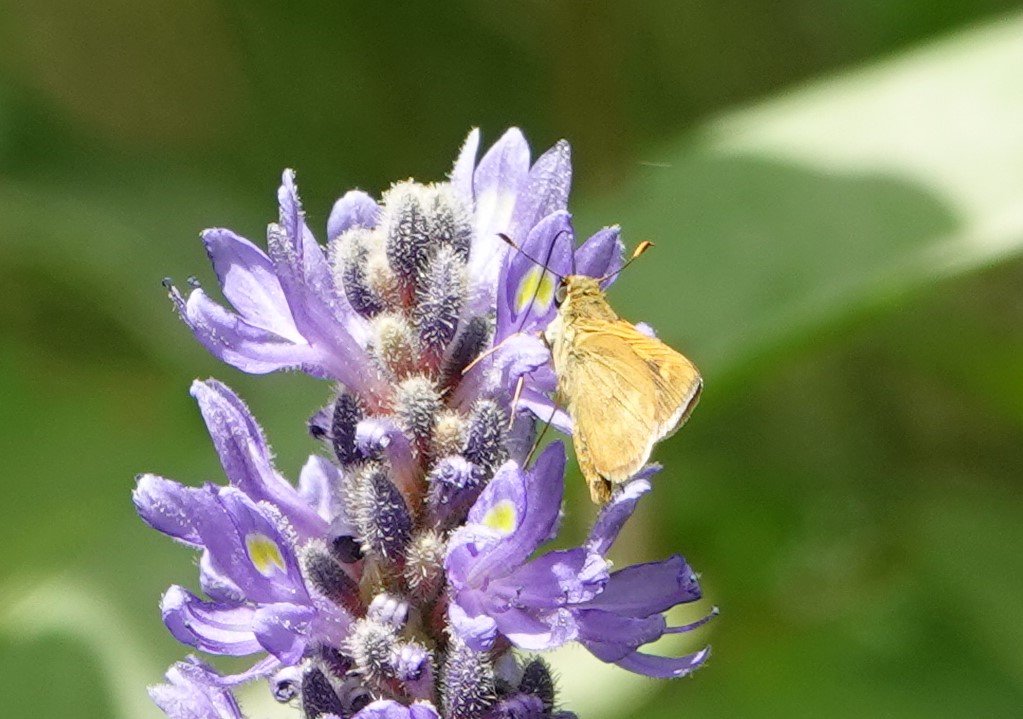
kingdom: Animalia
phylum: Arthropoda
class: Insecta
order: Lepidoptera
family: Hesperiidae
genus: Problema
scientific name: Problema byssus
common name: Byssus Skipper
